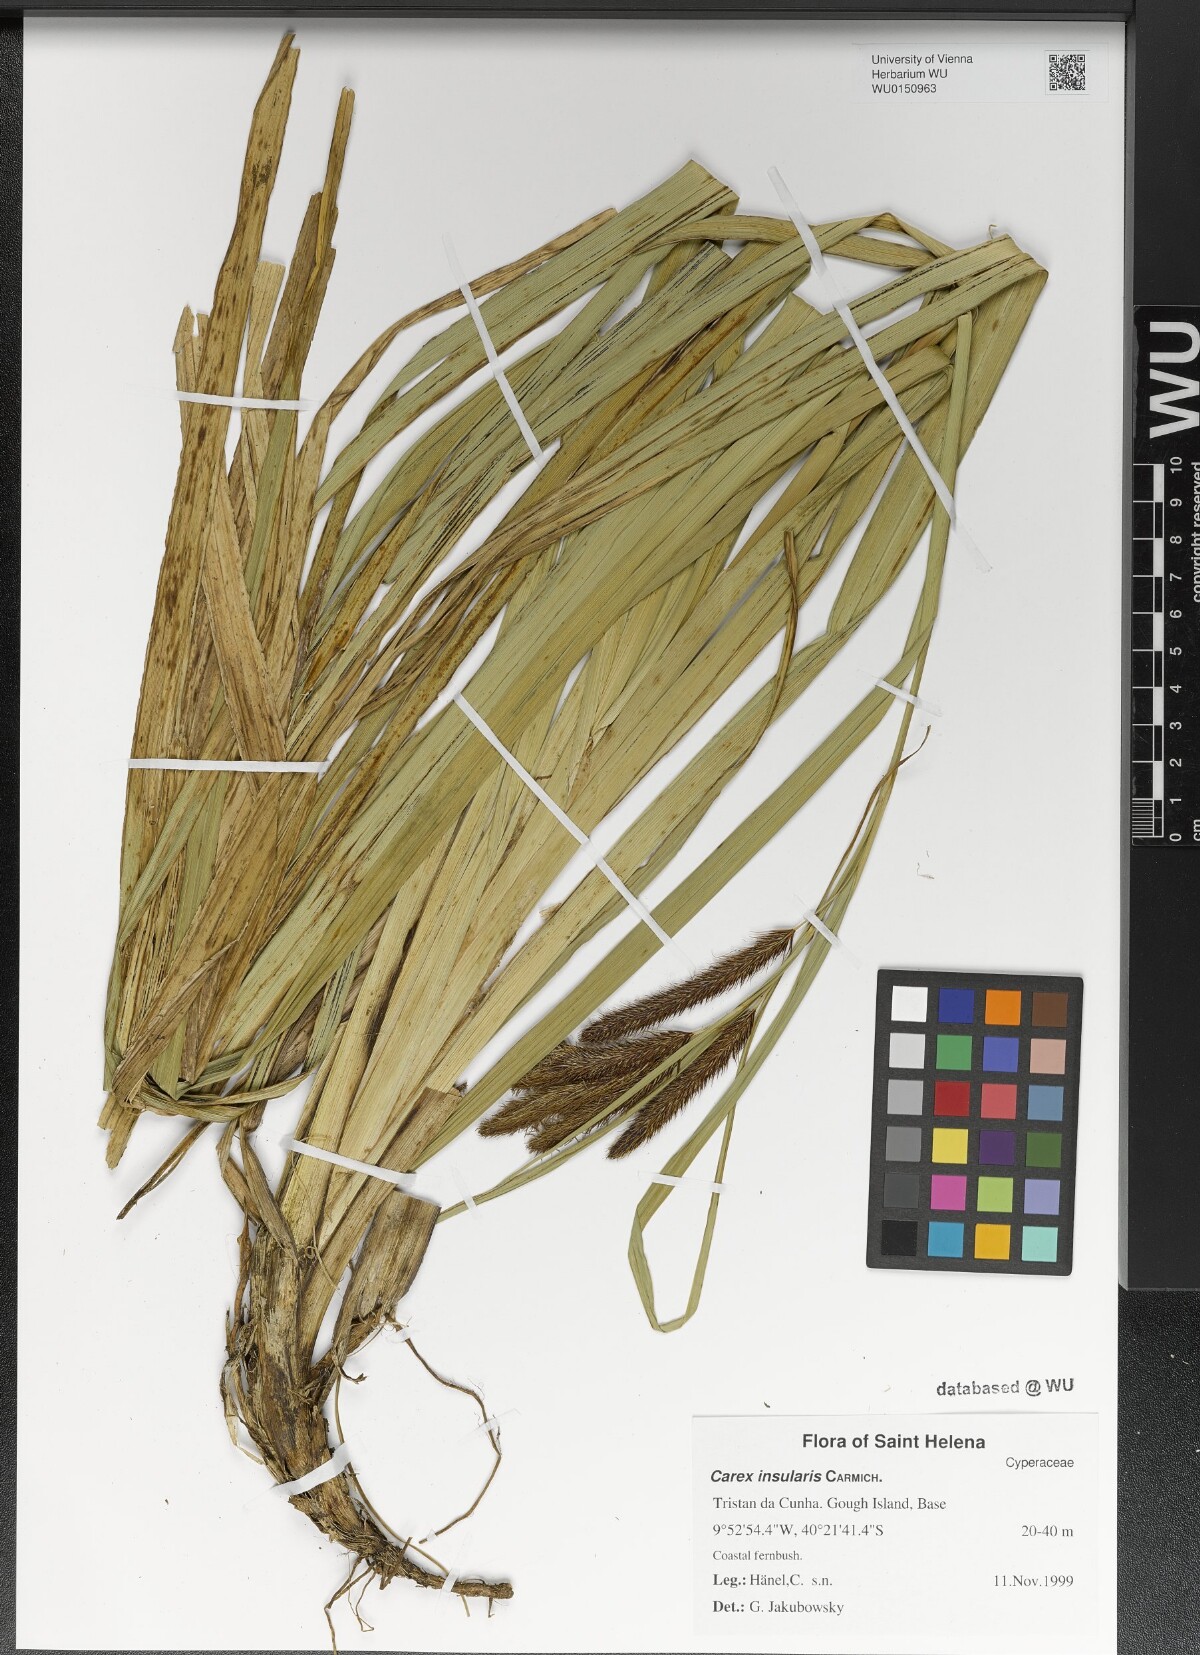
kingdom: Plantae
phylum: Tracheophyta
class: Liliopsida
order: Poales
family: Cyperaceae
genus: Carex
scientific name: Carex insularis
